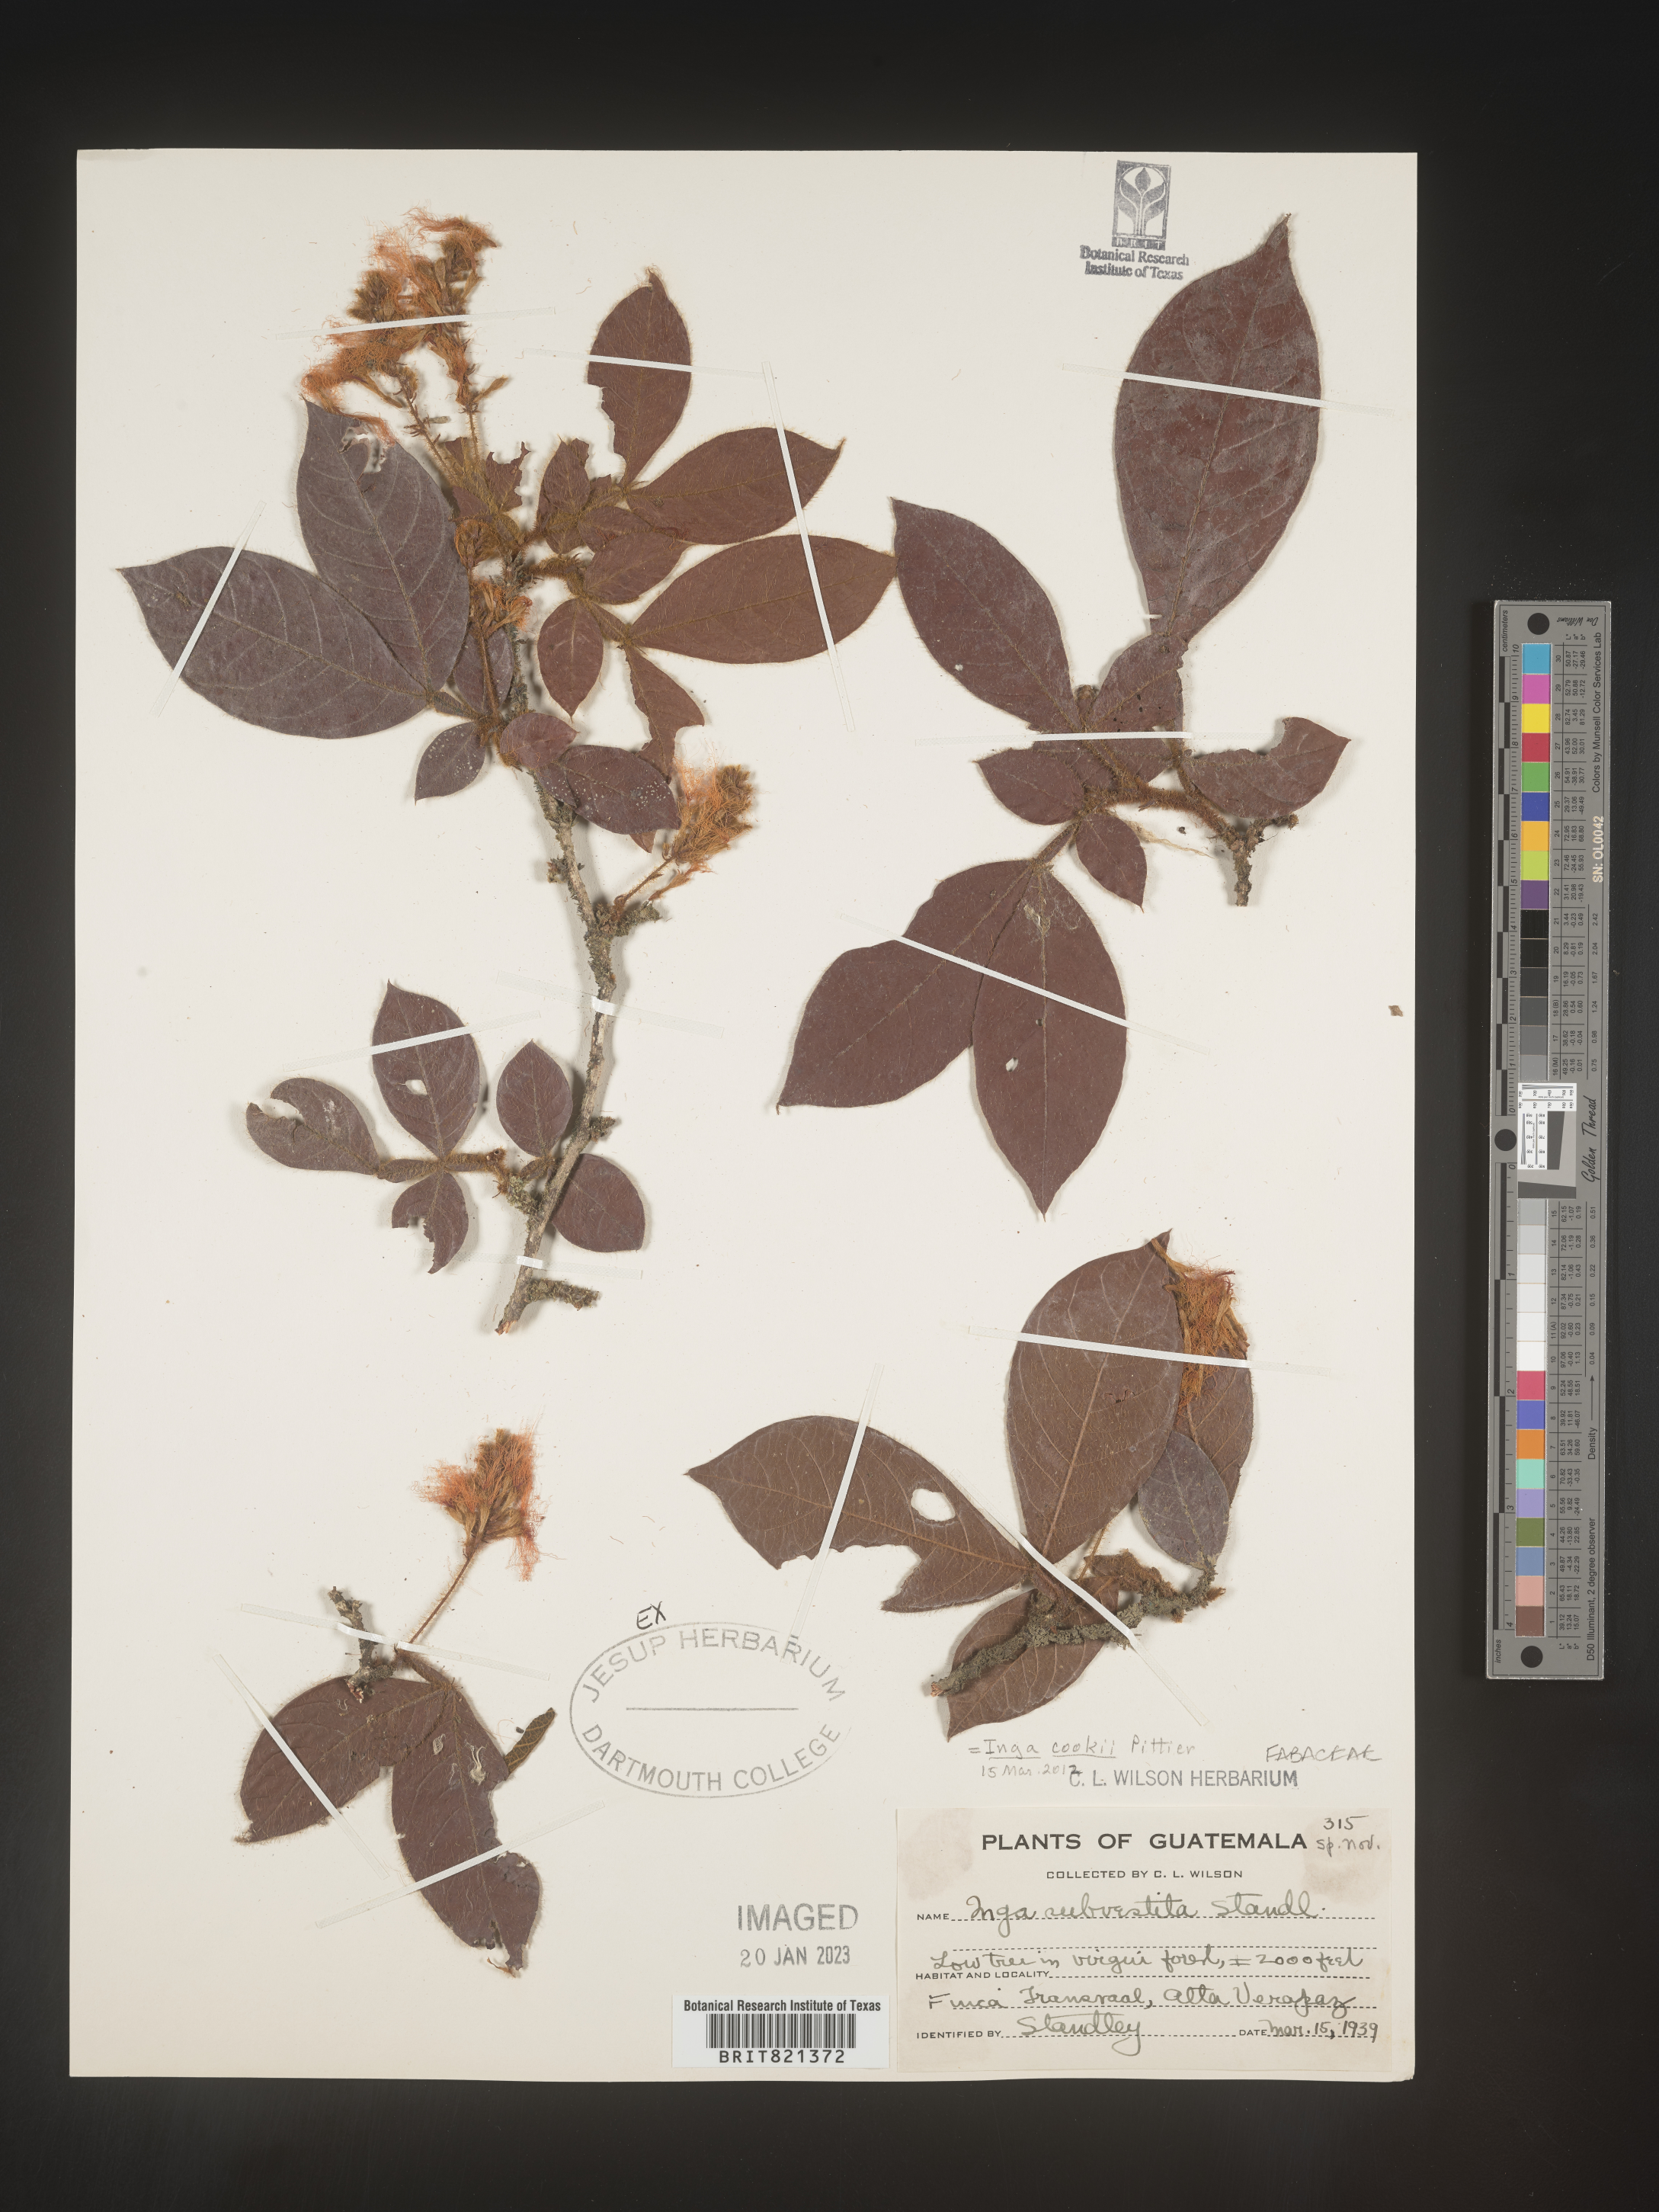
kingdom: Plantae
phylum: Tracheophyta
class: Magnoliopsida
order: Fabales
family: Fabaceae
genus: Inga
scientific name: Inga
